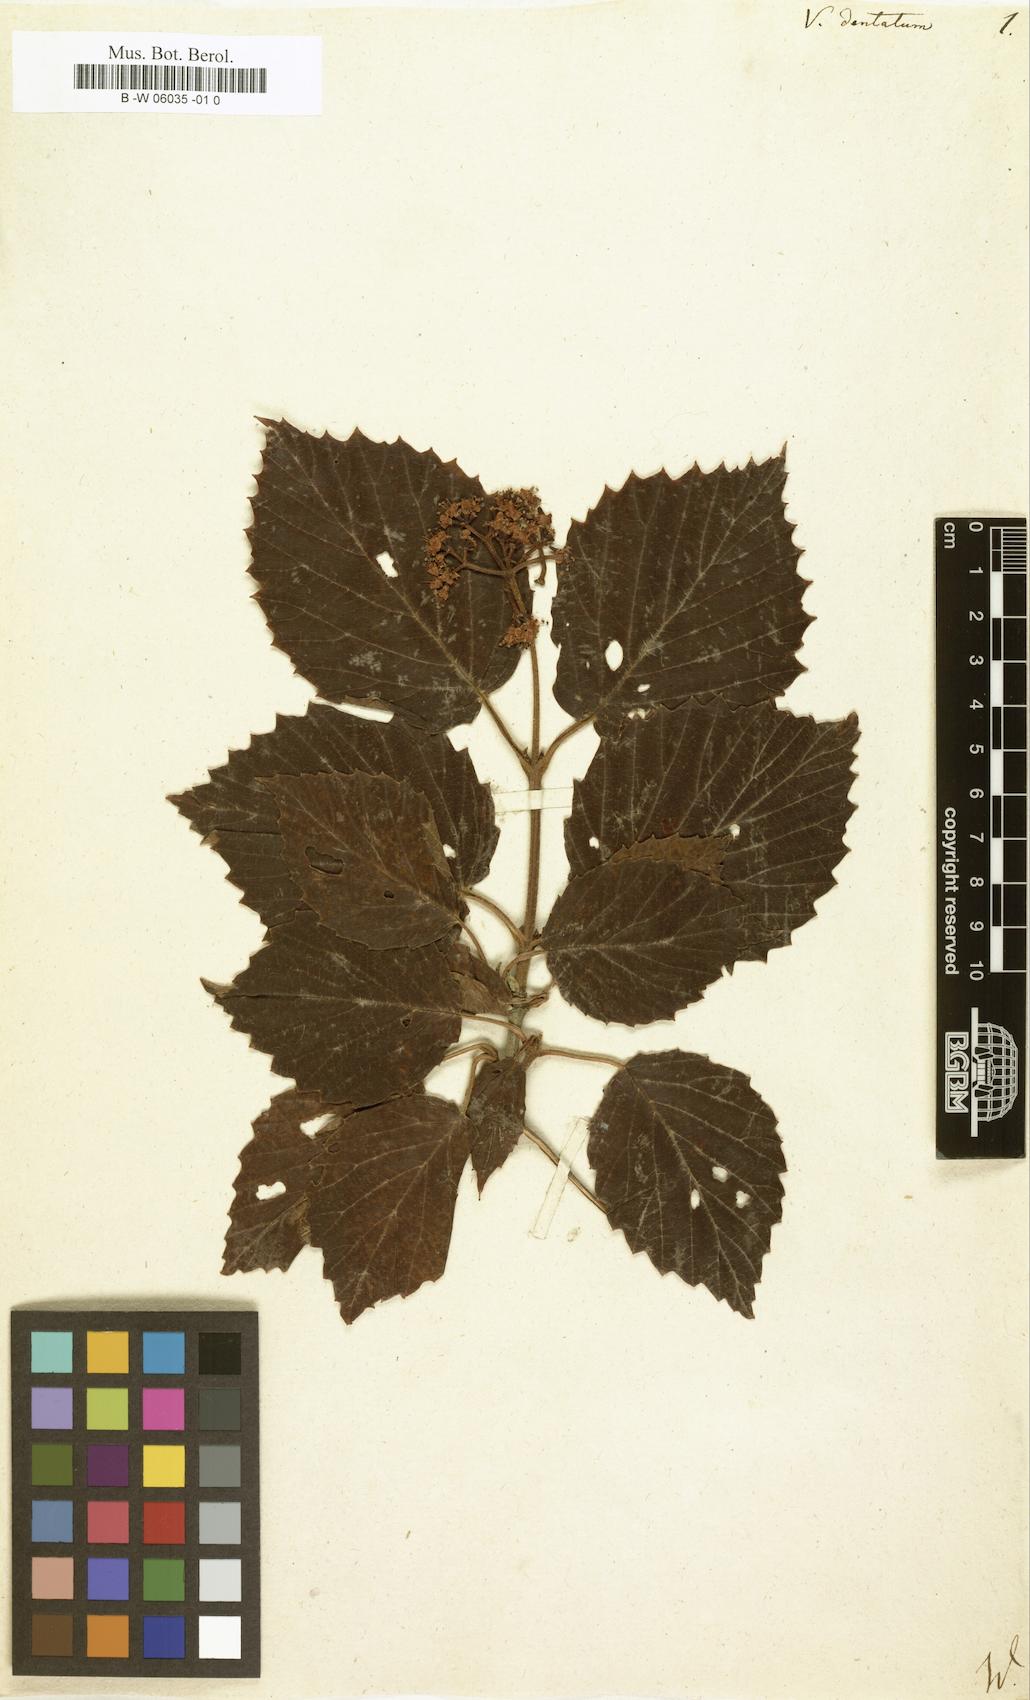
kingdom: Plantae
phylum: Tracheophyta
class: Magnoliopsida
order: Dipsacales
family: Viburnaceae
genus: Viburnum
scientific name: Viburnum dentatum
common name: Arrow-wood
